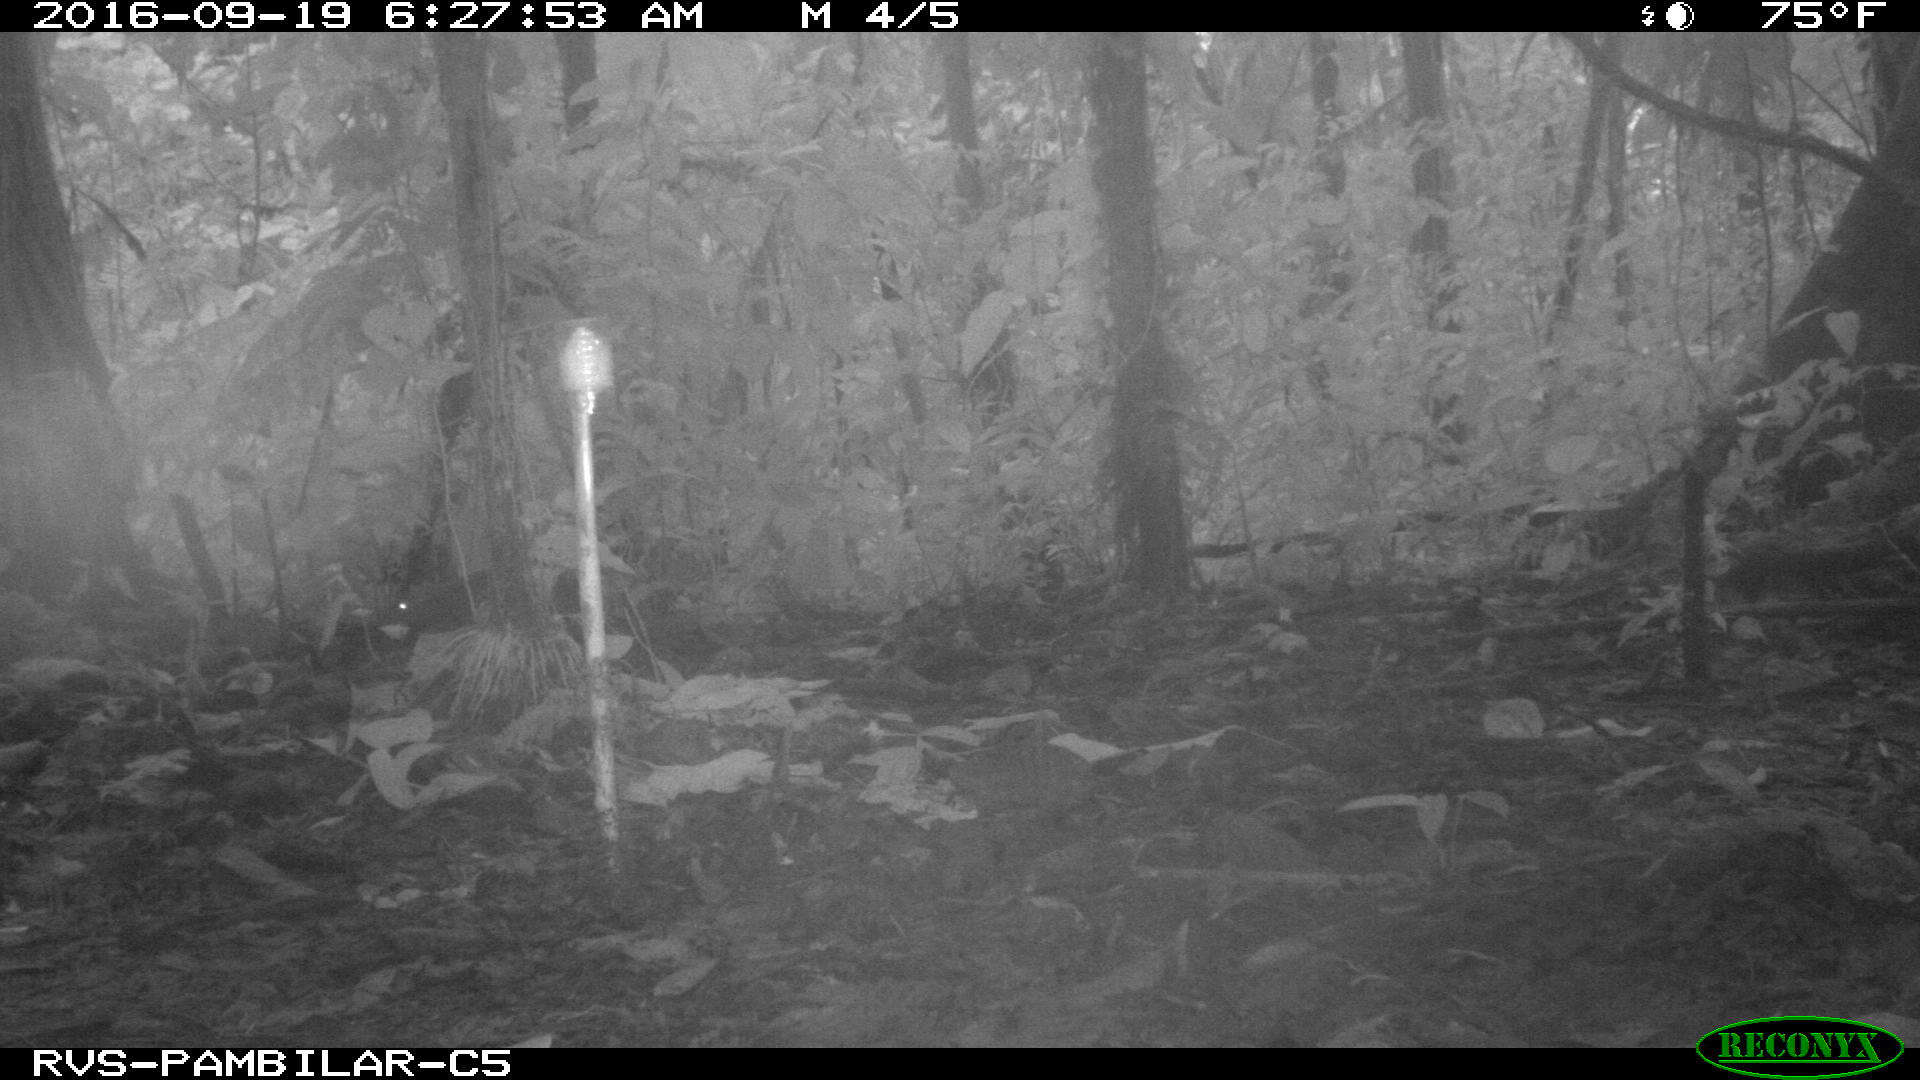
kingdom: Animalia
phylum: Chordata
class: Mammalia
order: Rodentia
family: Dasyproctidae
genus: Dasyprocta
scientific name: Dasyprocta punctata
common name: Central american agouti
